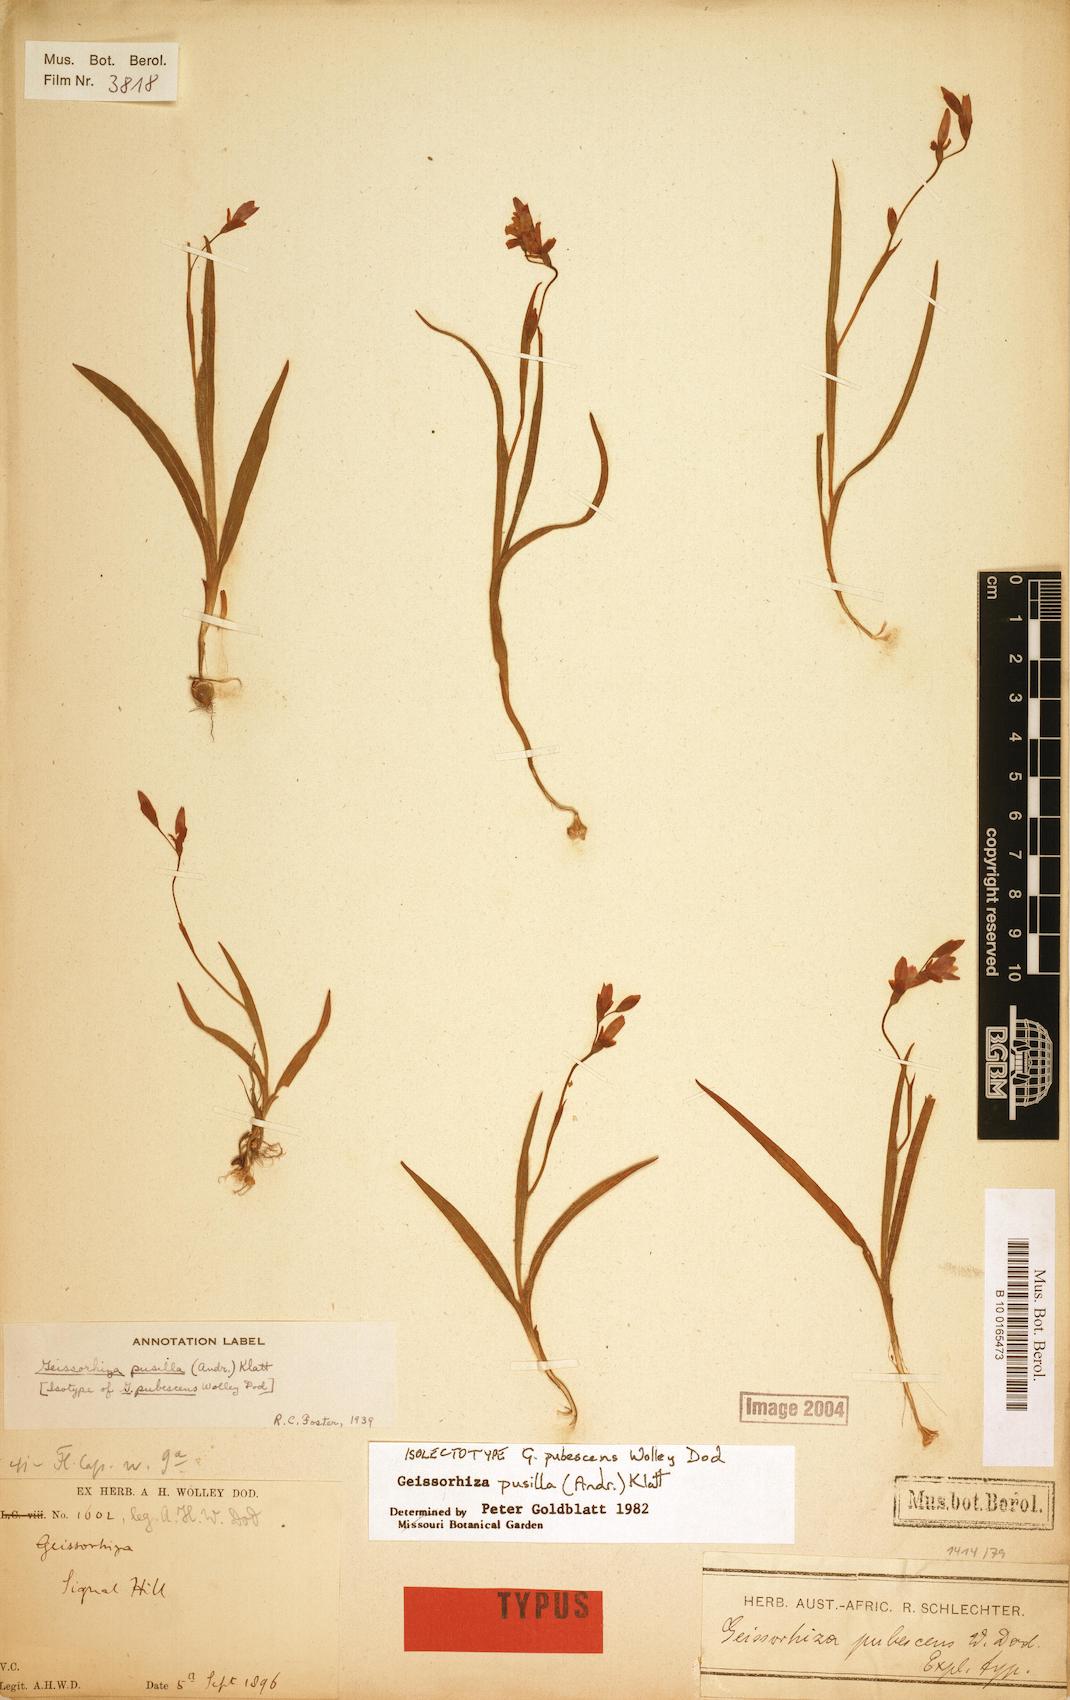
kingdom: Plantae
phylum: Tracheophyta
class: Liliopsida
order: Asparagales
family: Iridaceae
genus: Geissorhiza
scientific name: Geissorhiza pusilla
